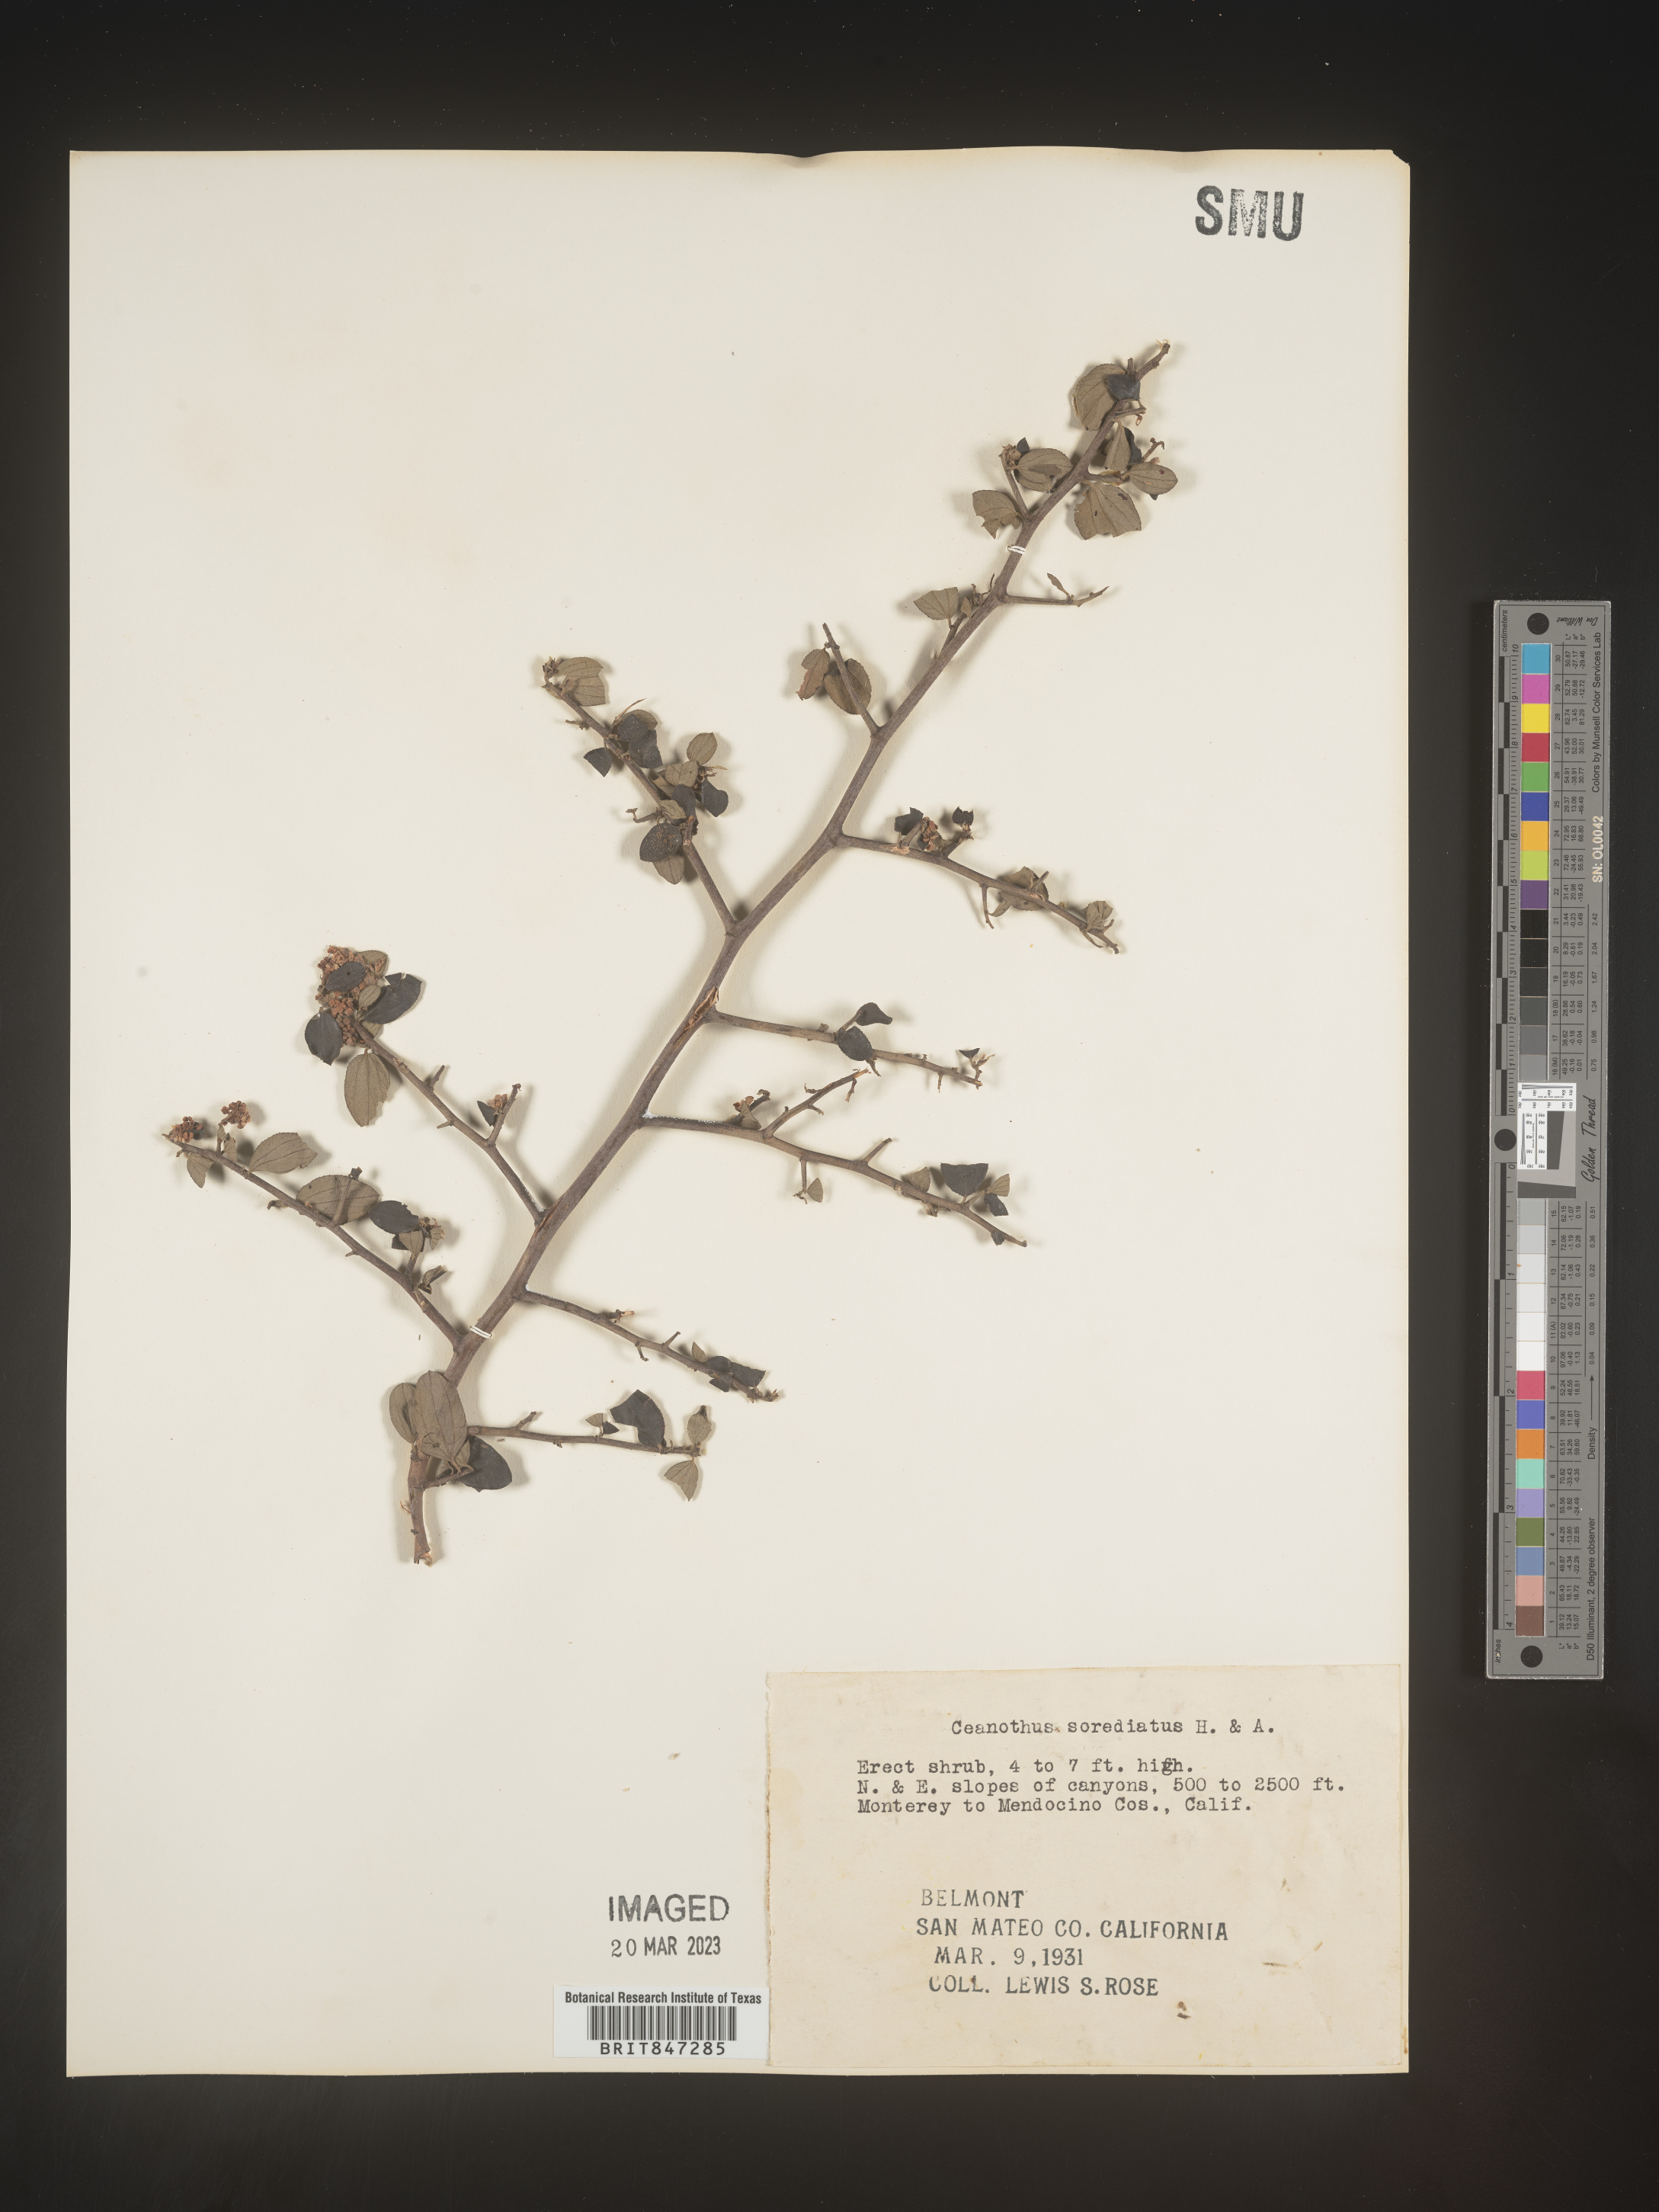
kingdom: Plantae
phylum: Tracheophyta
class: Magnoliopsida
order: Rosales
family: Rhamnaceae
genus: Ceanothus
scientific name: Ceanothus
